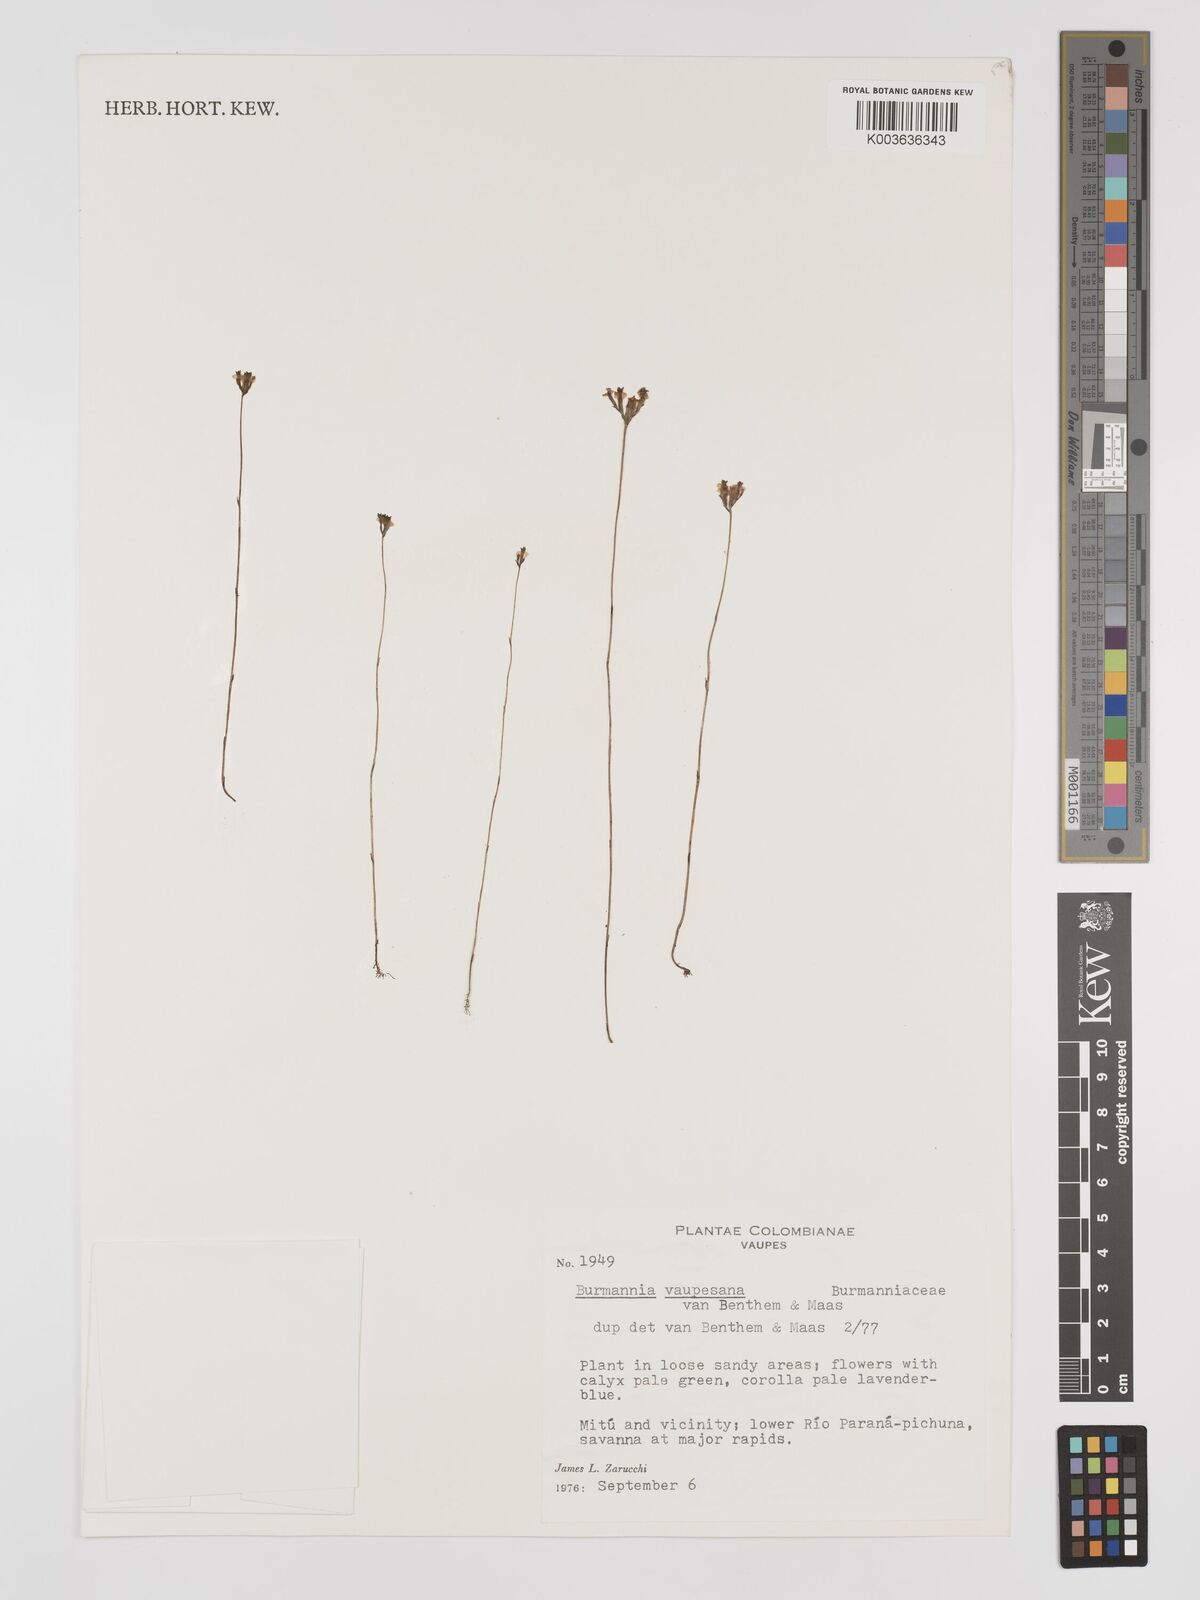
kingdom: Plantae
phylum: Tracheophyta
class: Liliopsida
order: Dioscoreales
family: Burmanniaceae
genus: Burmannia
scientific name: Burmannia vaupesiana
